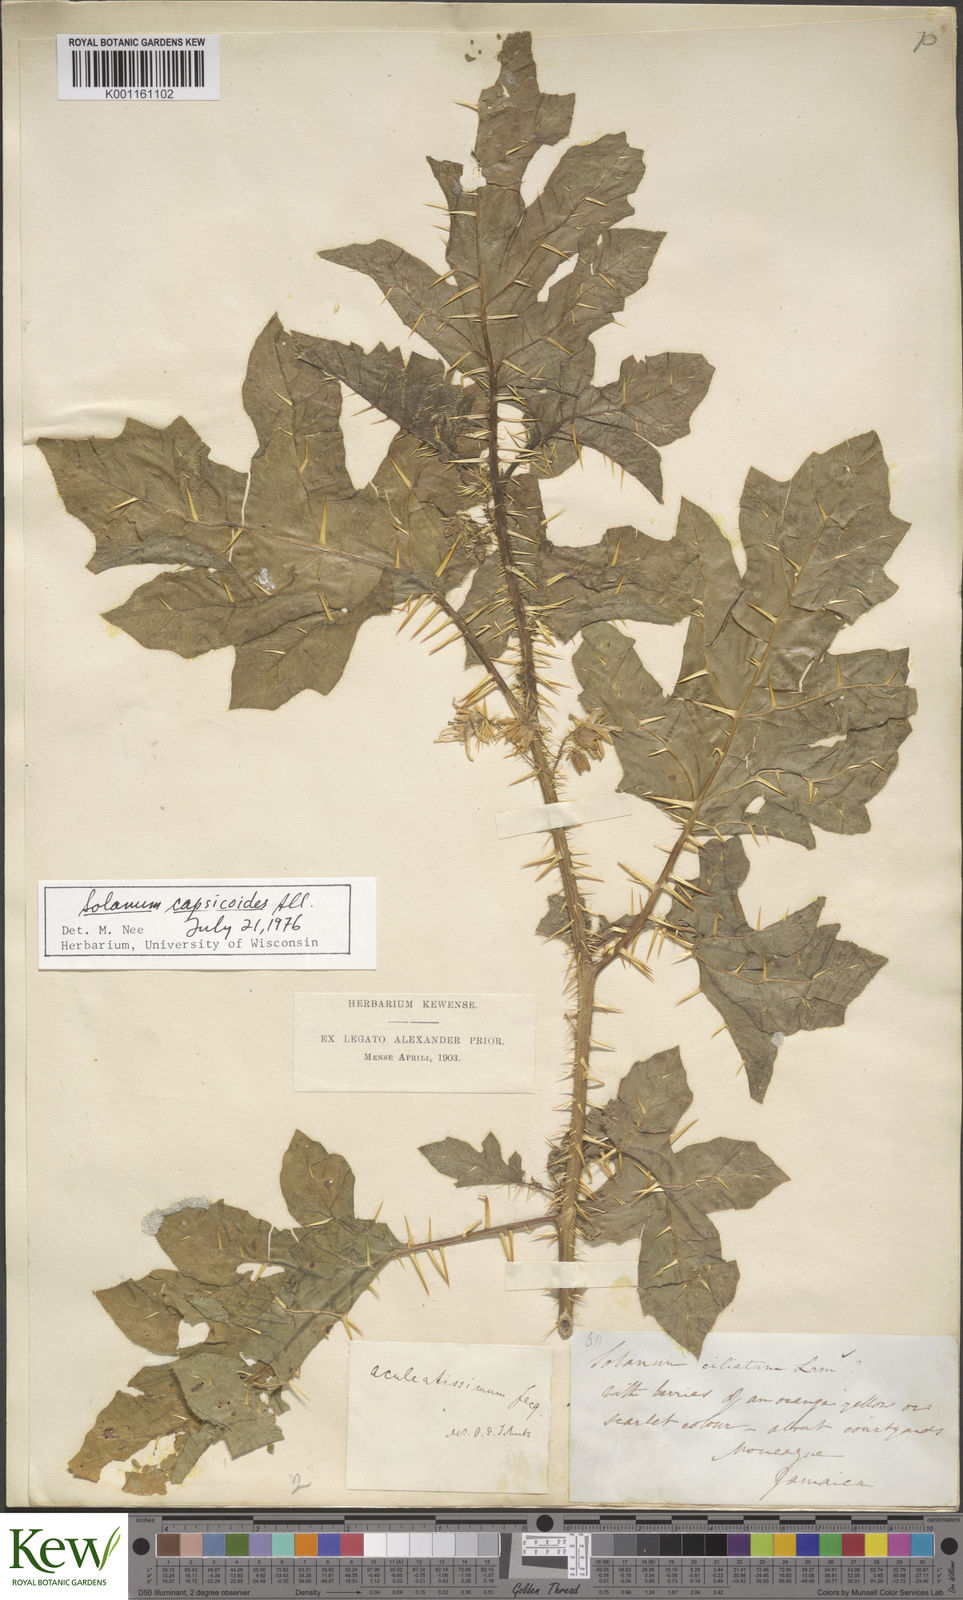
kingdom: Plantae
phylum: Tracheophyta
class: Magnoliopsida
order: Solanales
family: Solanaceae
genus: Solanum
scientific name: Solanum aculeatissimum
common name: Dutch eggplant
